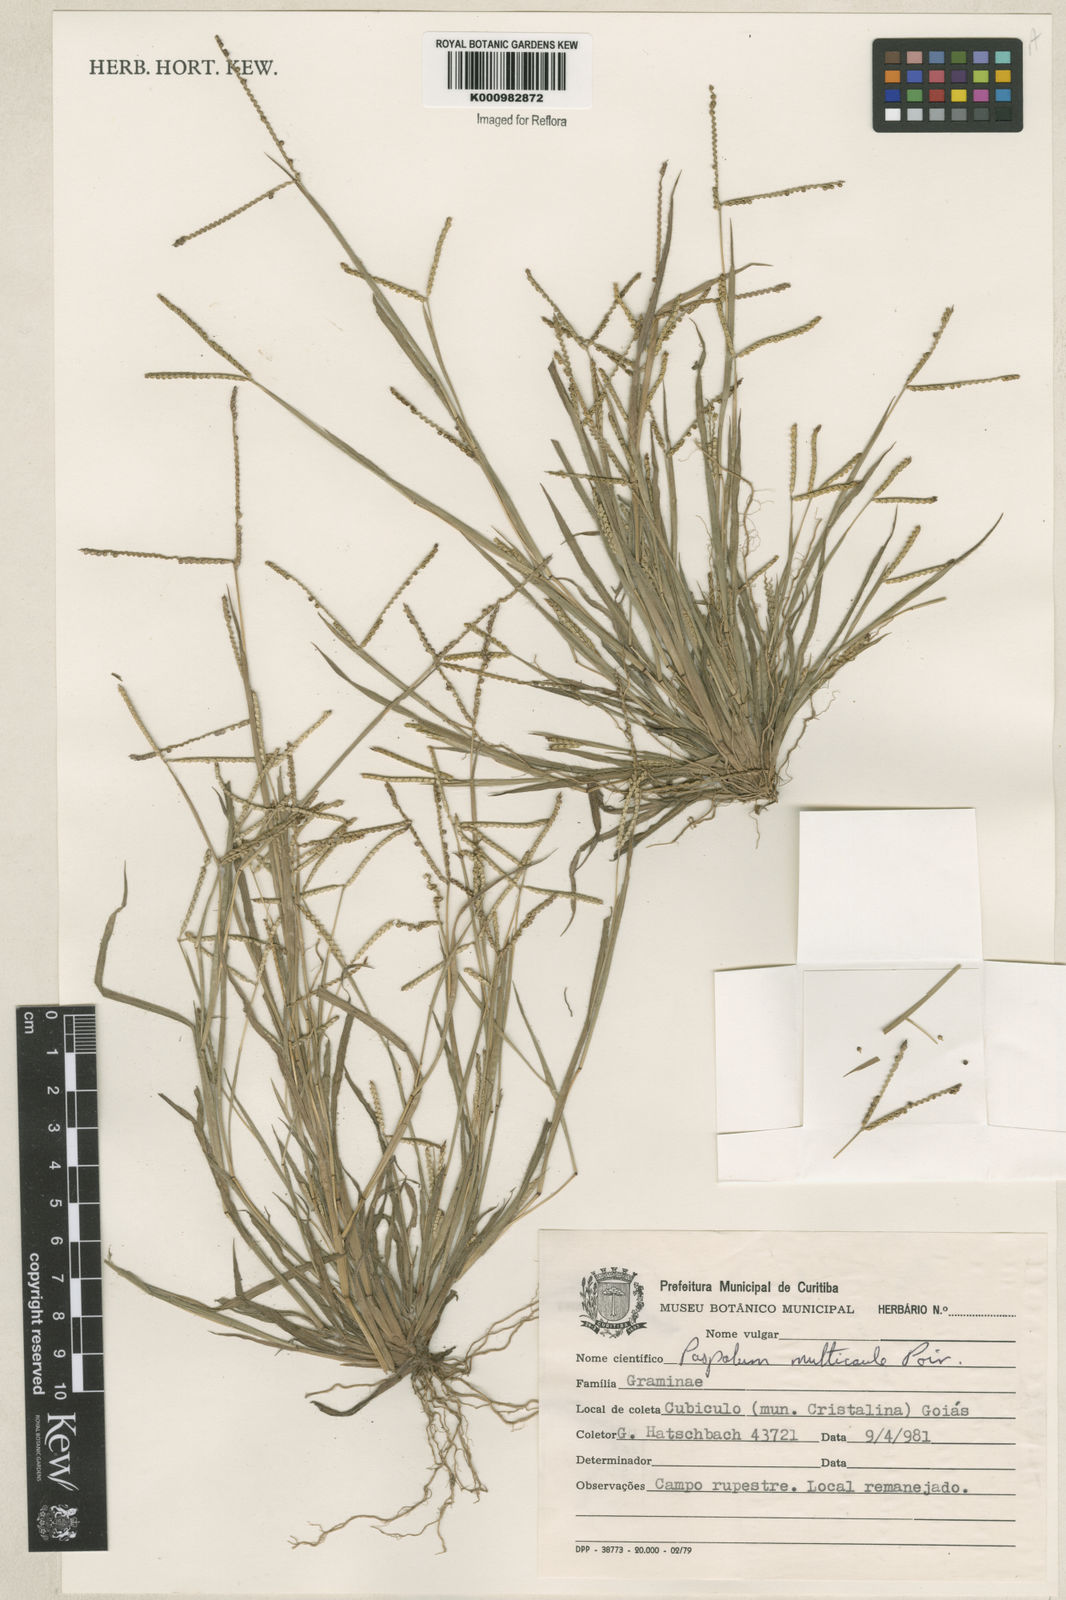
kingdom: Plantae
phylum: Tracheophyta
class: Liliopsida
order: Poales
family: Poaceae
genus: Paspalum
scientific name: Paspalum multicaule
